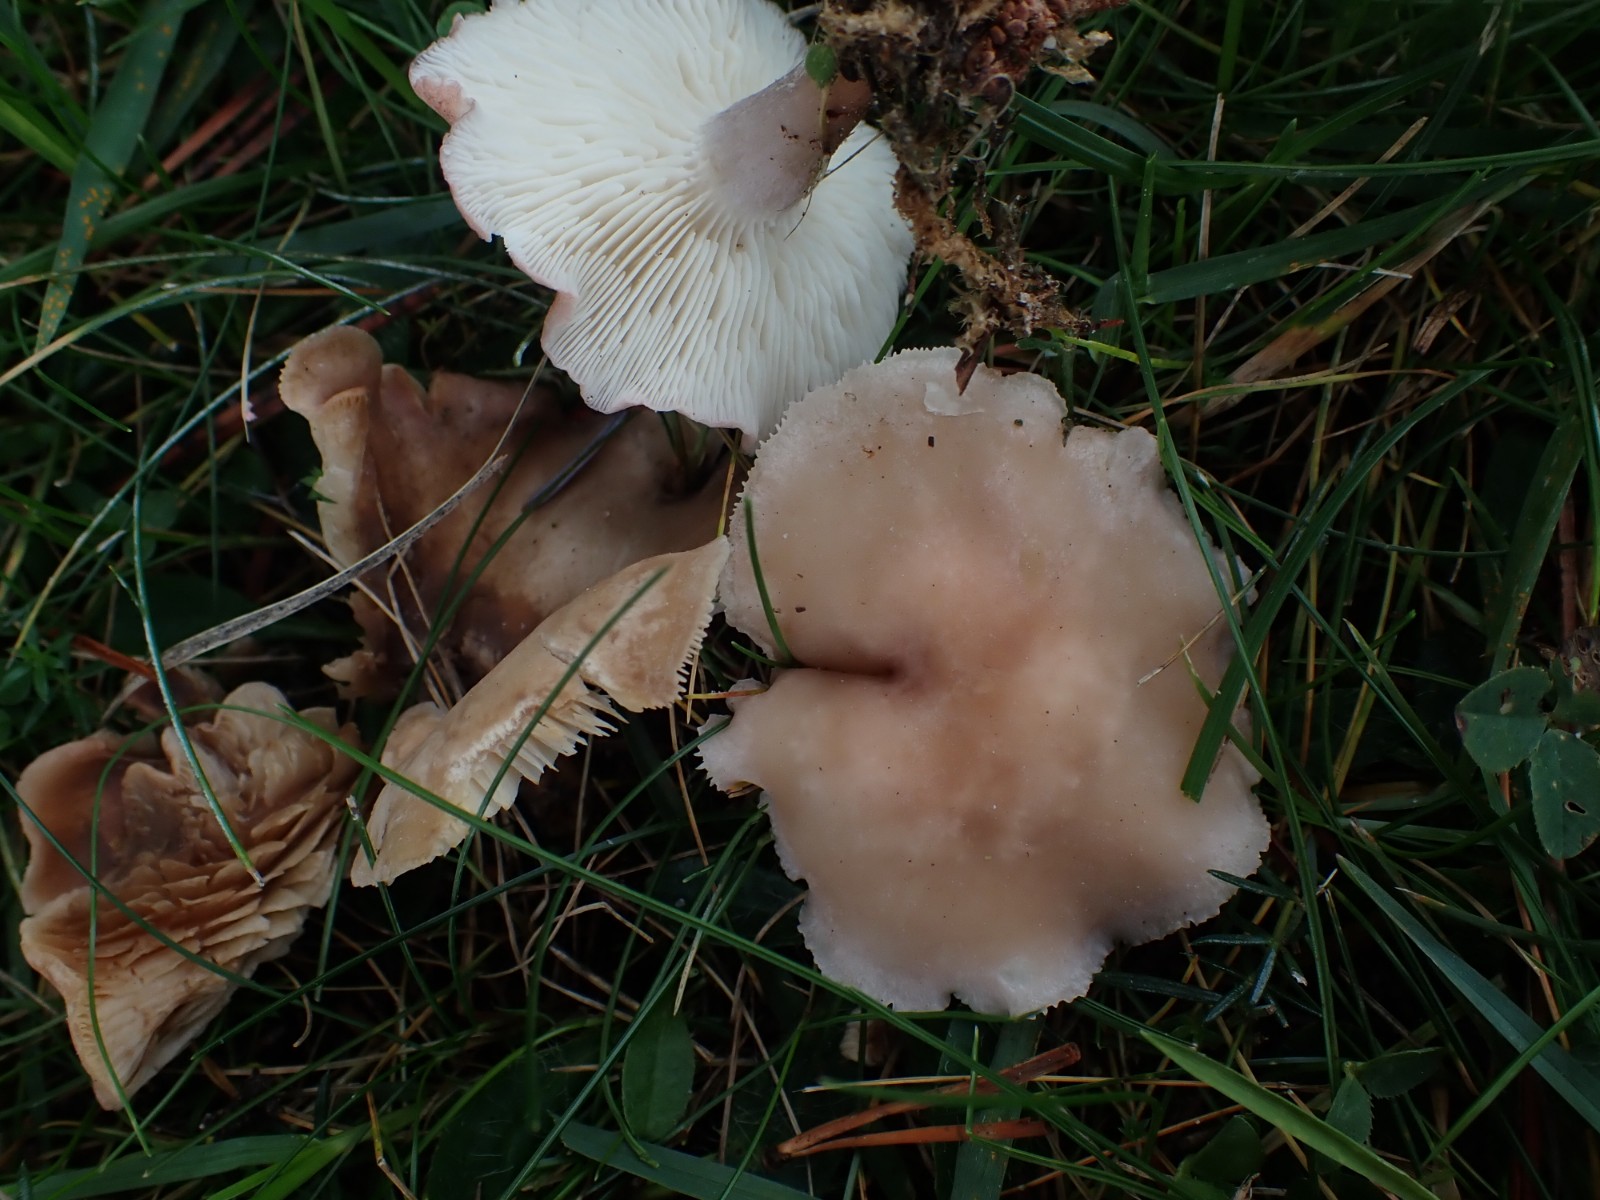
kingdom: Fungi
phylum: Basidiomycota
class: Agaricomycetes
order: Agaricales
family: Lyophyllaceae
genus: Calocybe
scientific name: Calocybe carnea
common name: rosa fagerhat
